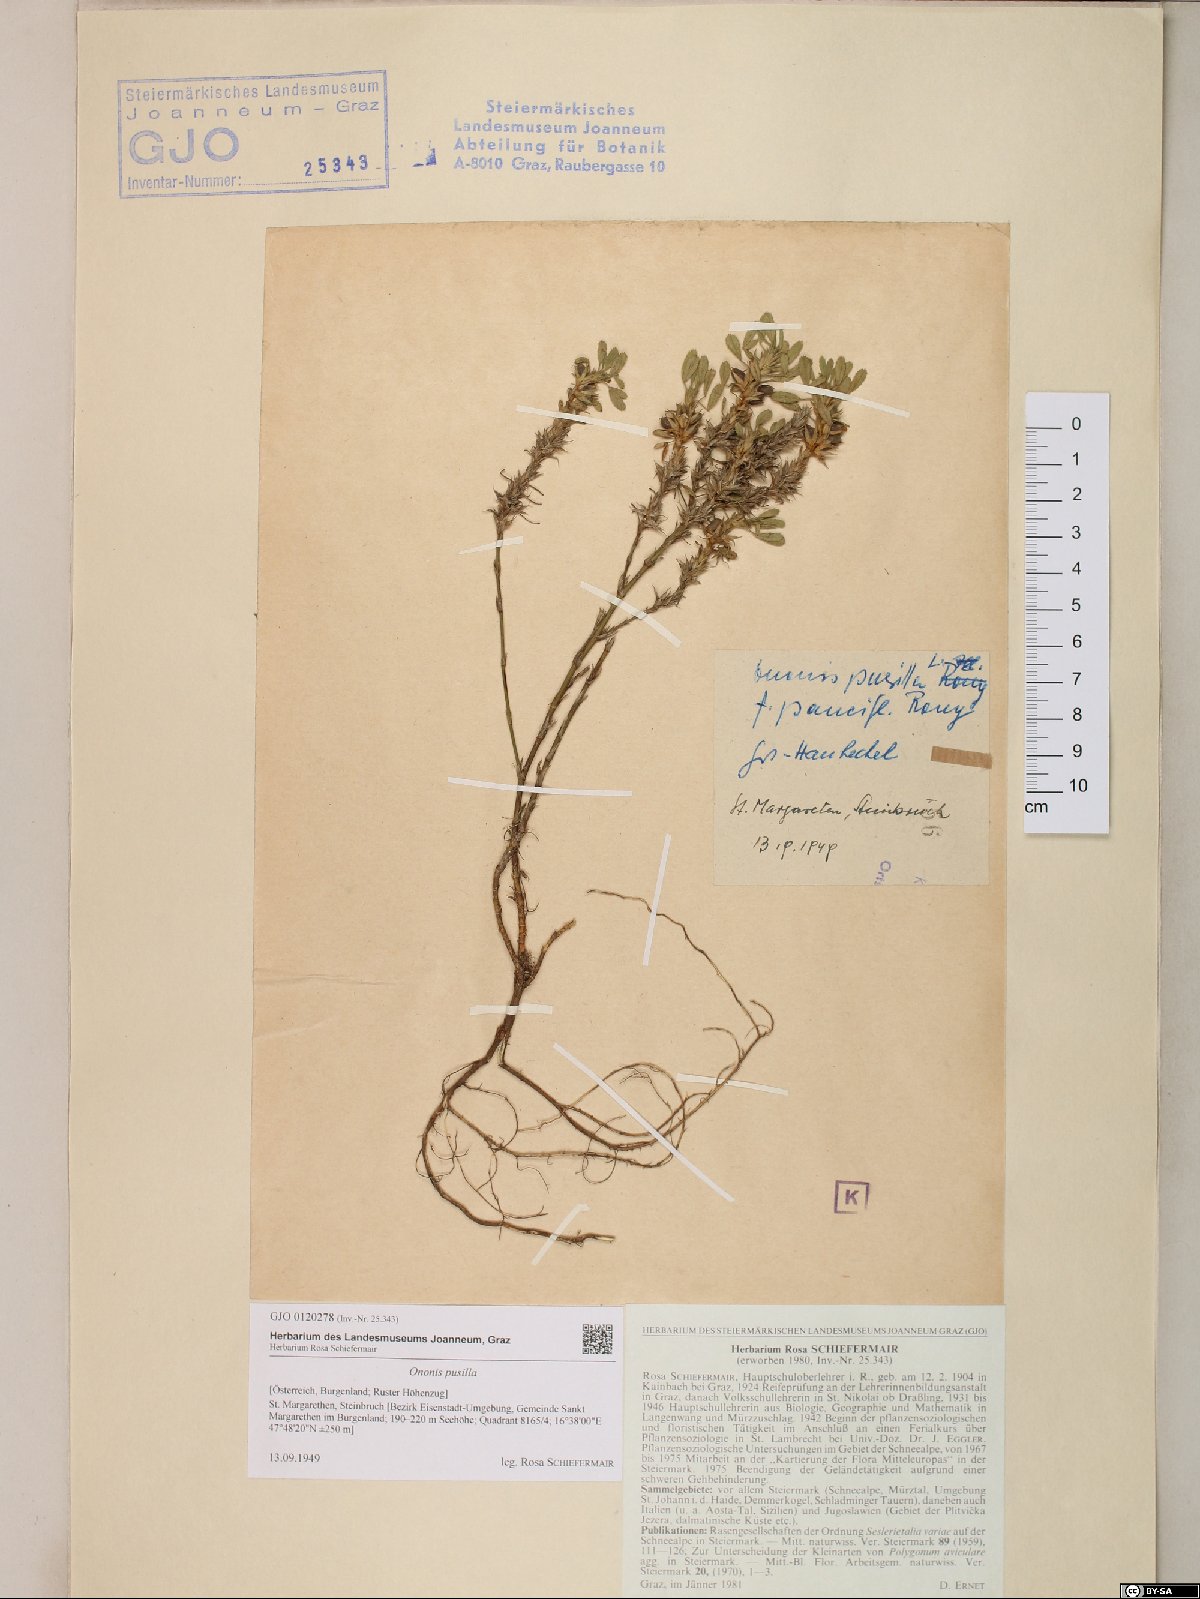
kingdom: Plantae
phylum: Tracheophyta
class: Magnoliopsida
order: Fabales
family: Fabaceae
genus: Ononis
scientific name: Ononis pusilla
